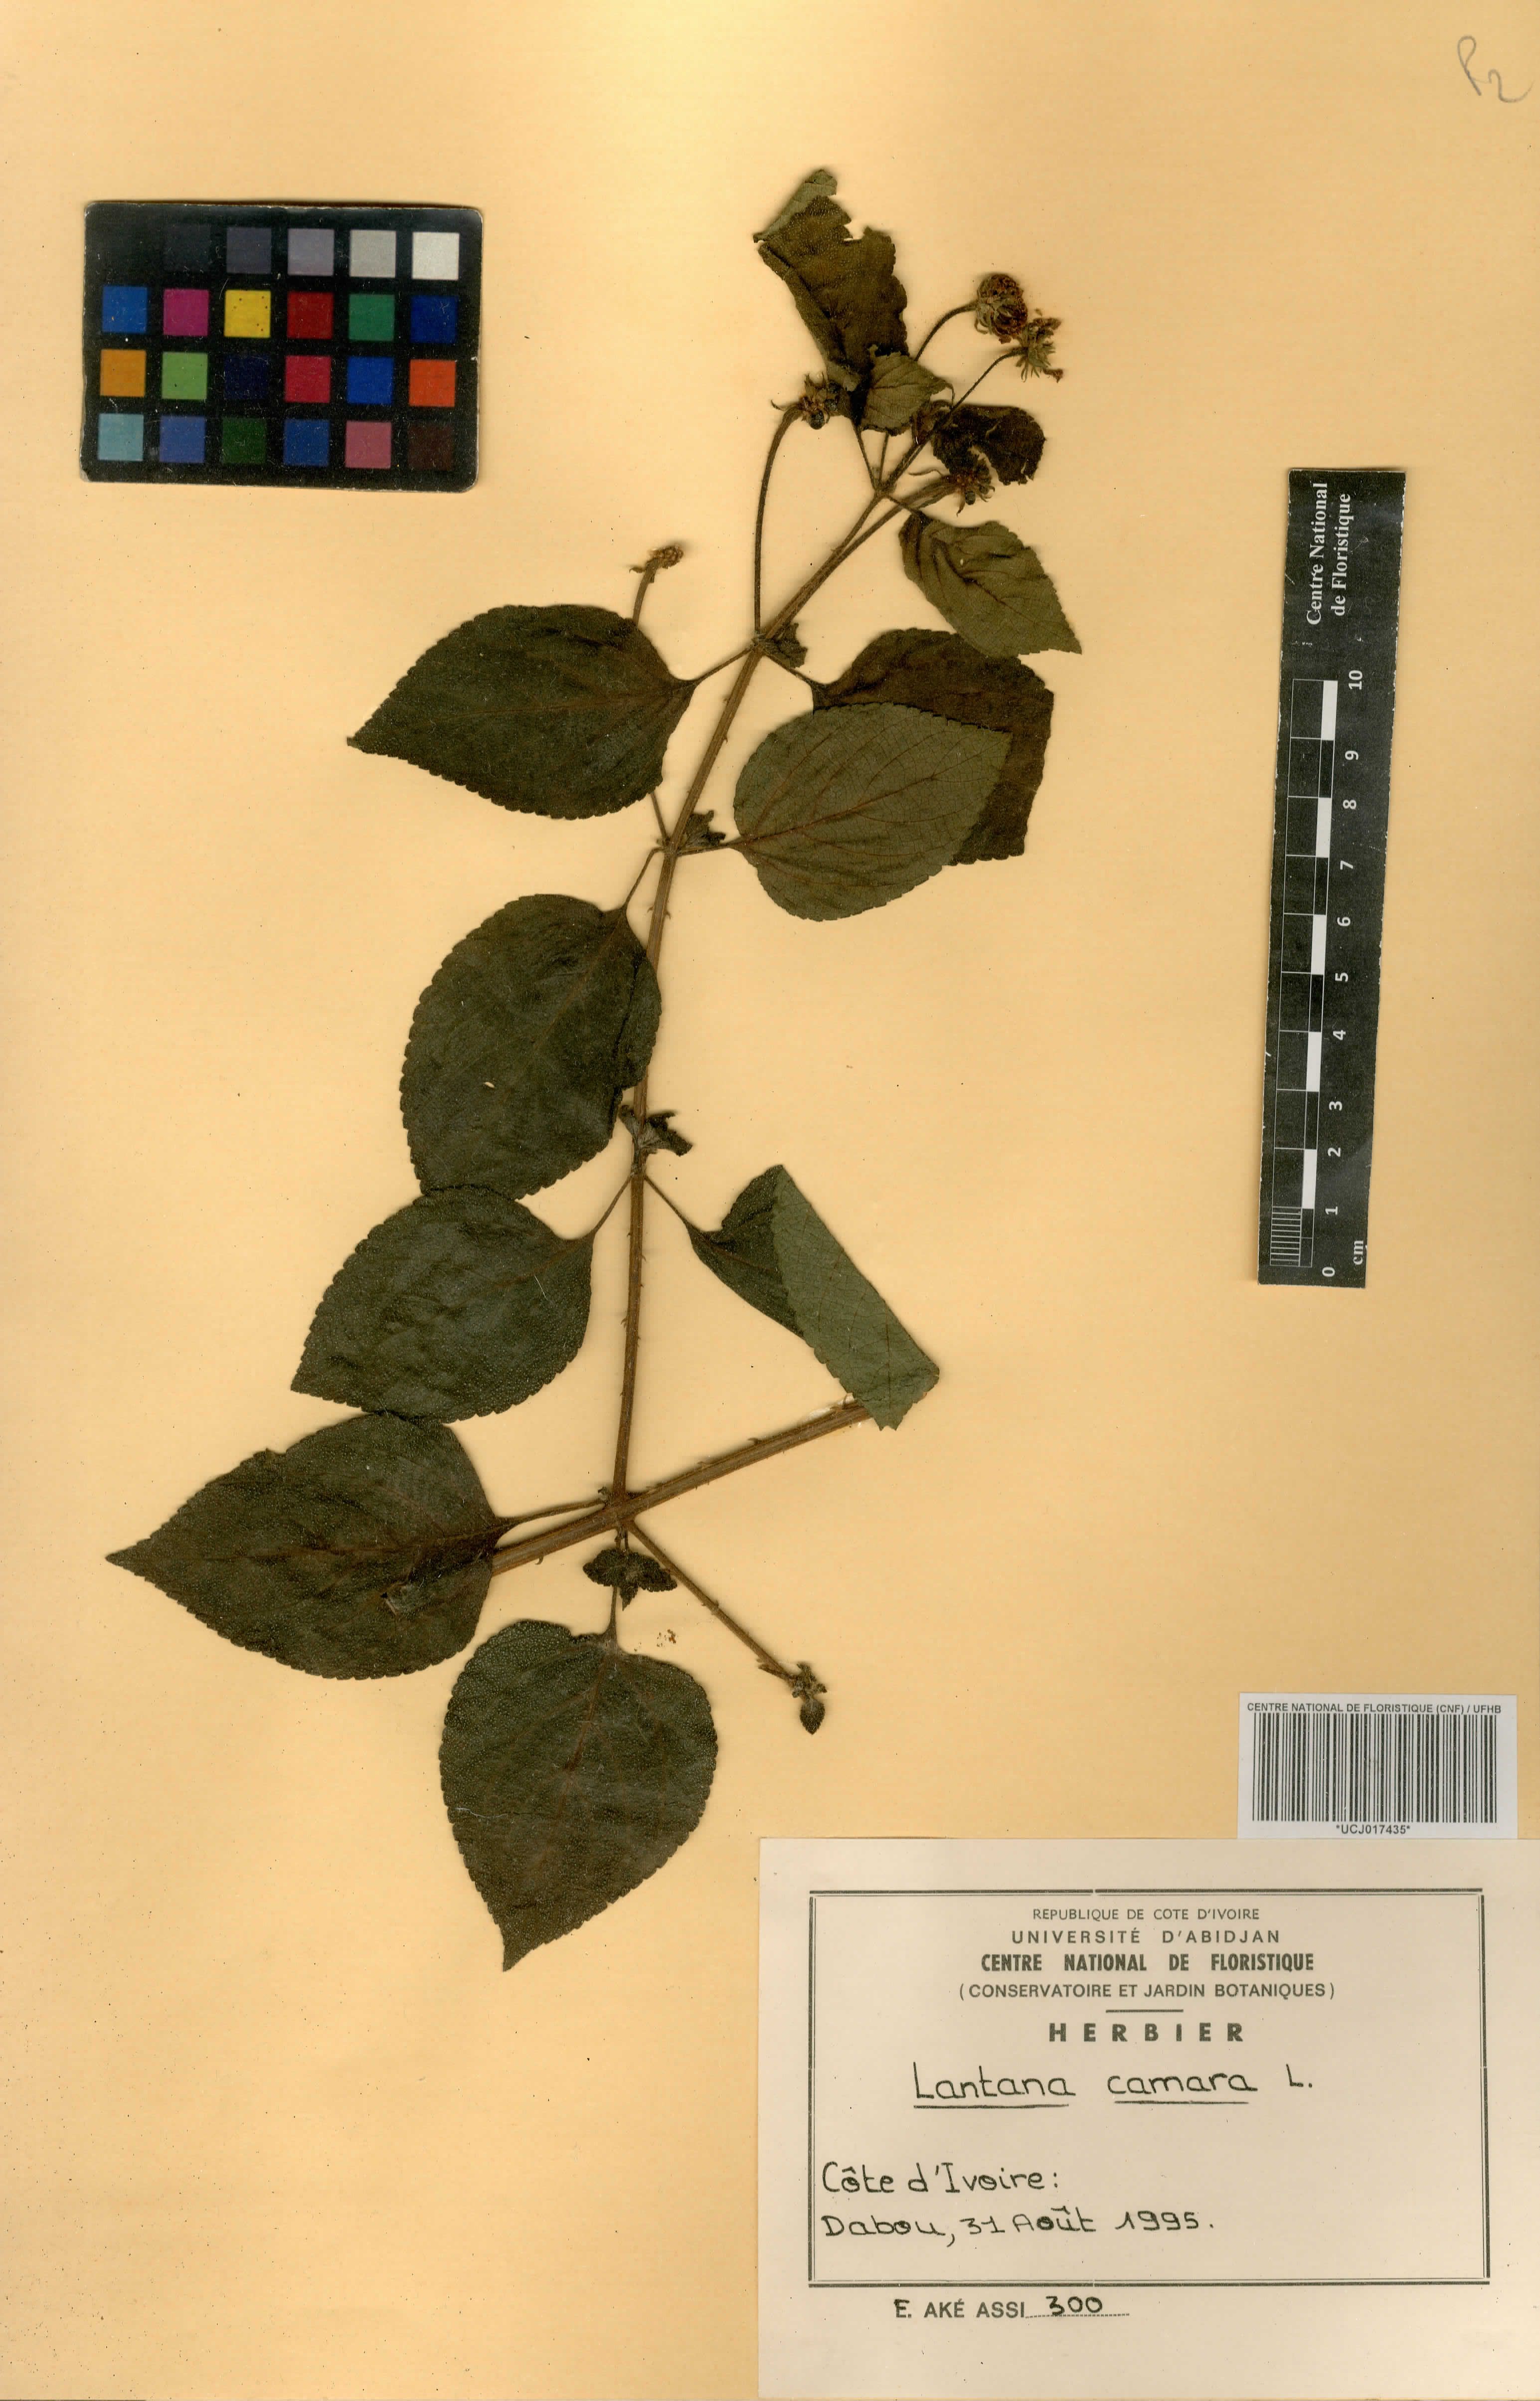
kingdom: Plantae
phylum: Tracheophyta
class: Magnoliopsida
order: Lamiales
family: Verbenaceae
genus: Lantana
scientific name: Lantana camara
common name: Lantana
